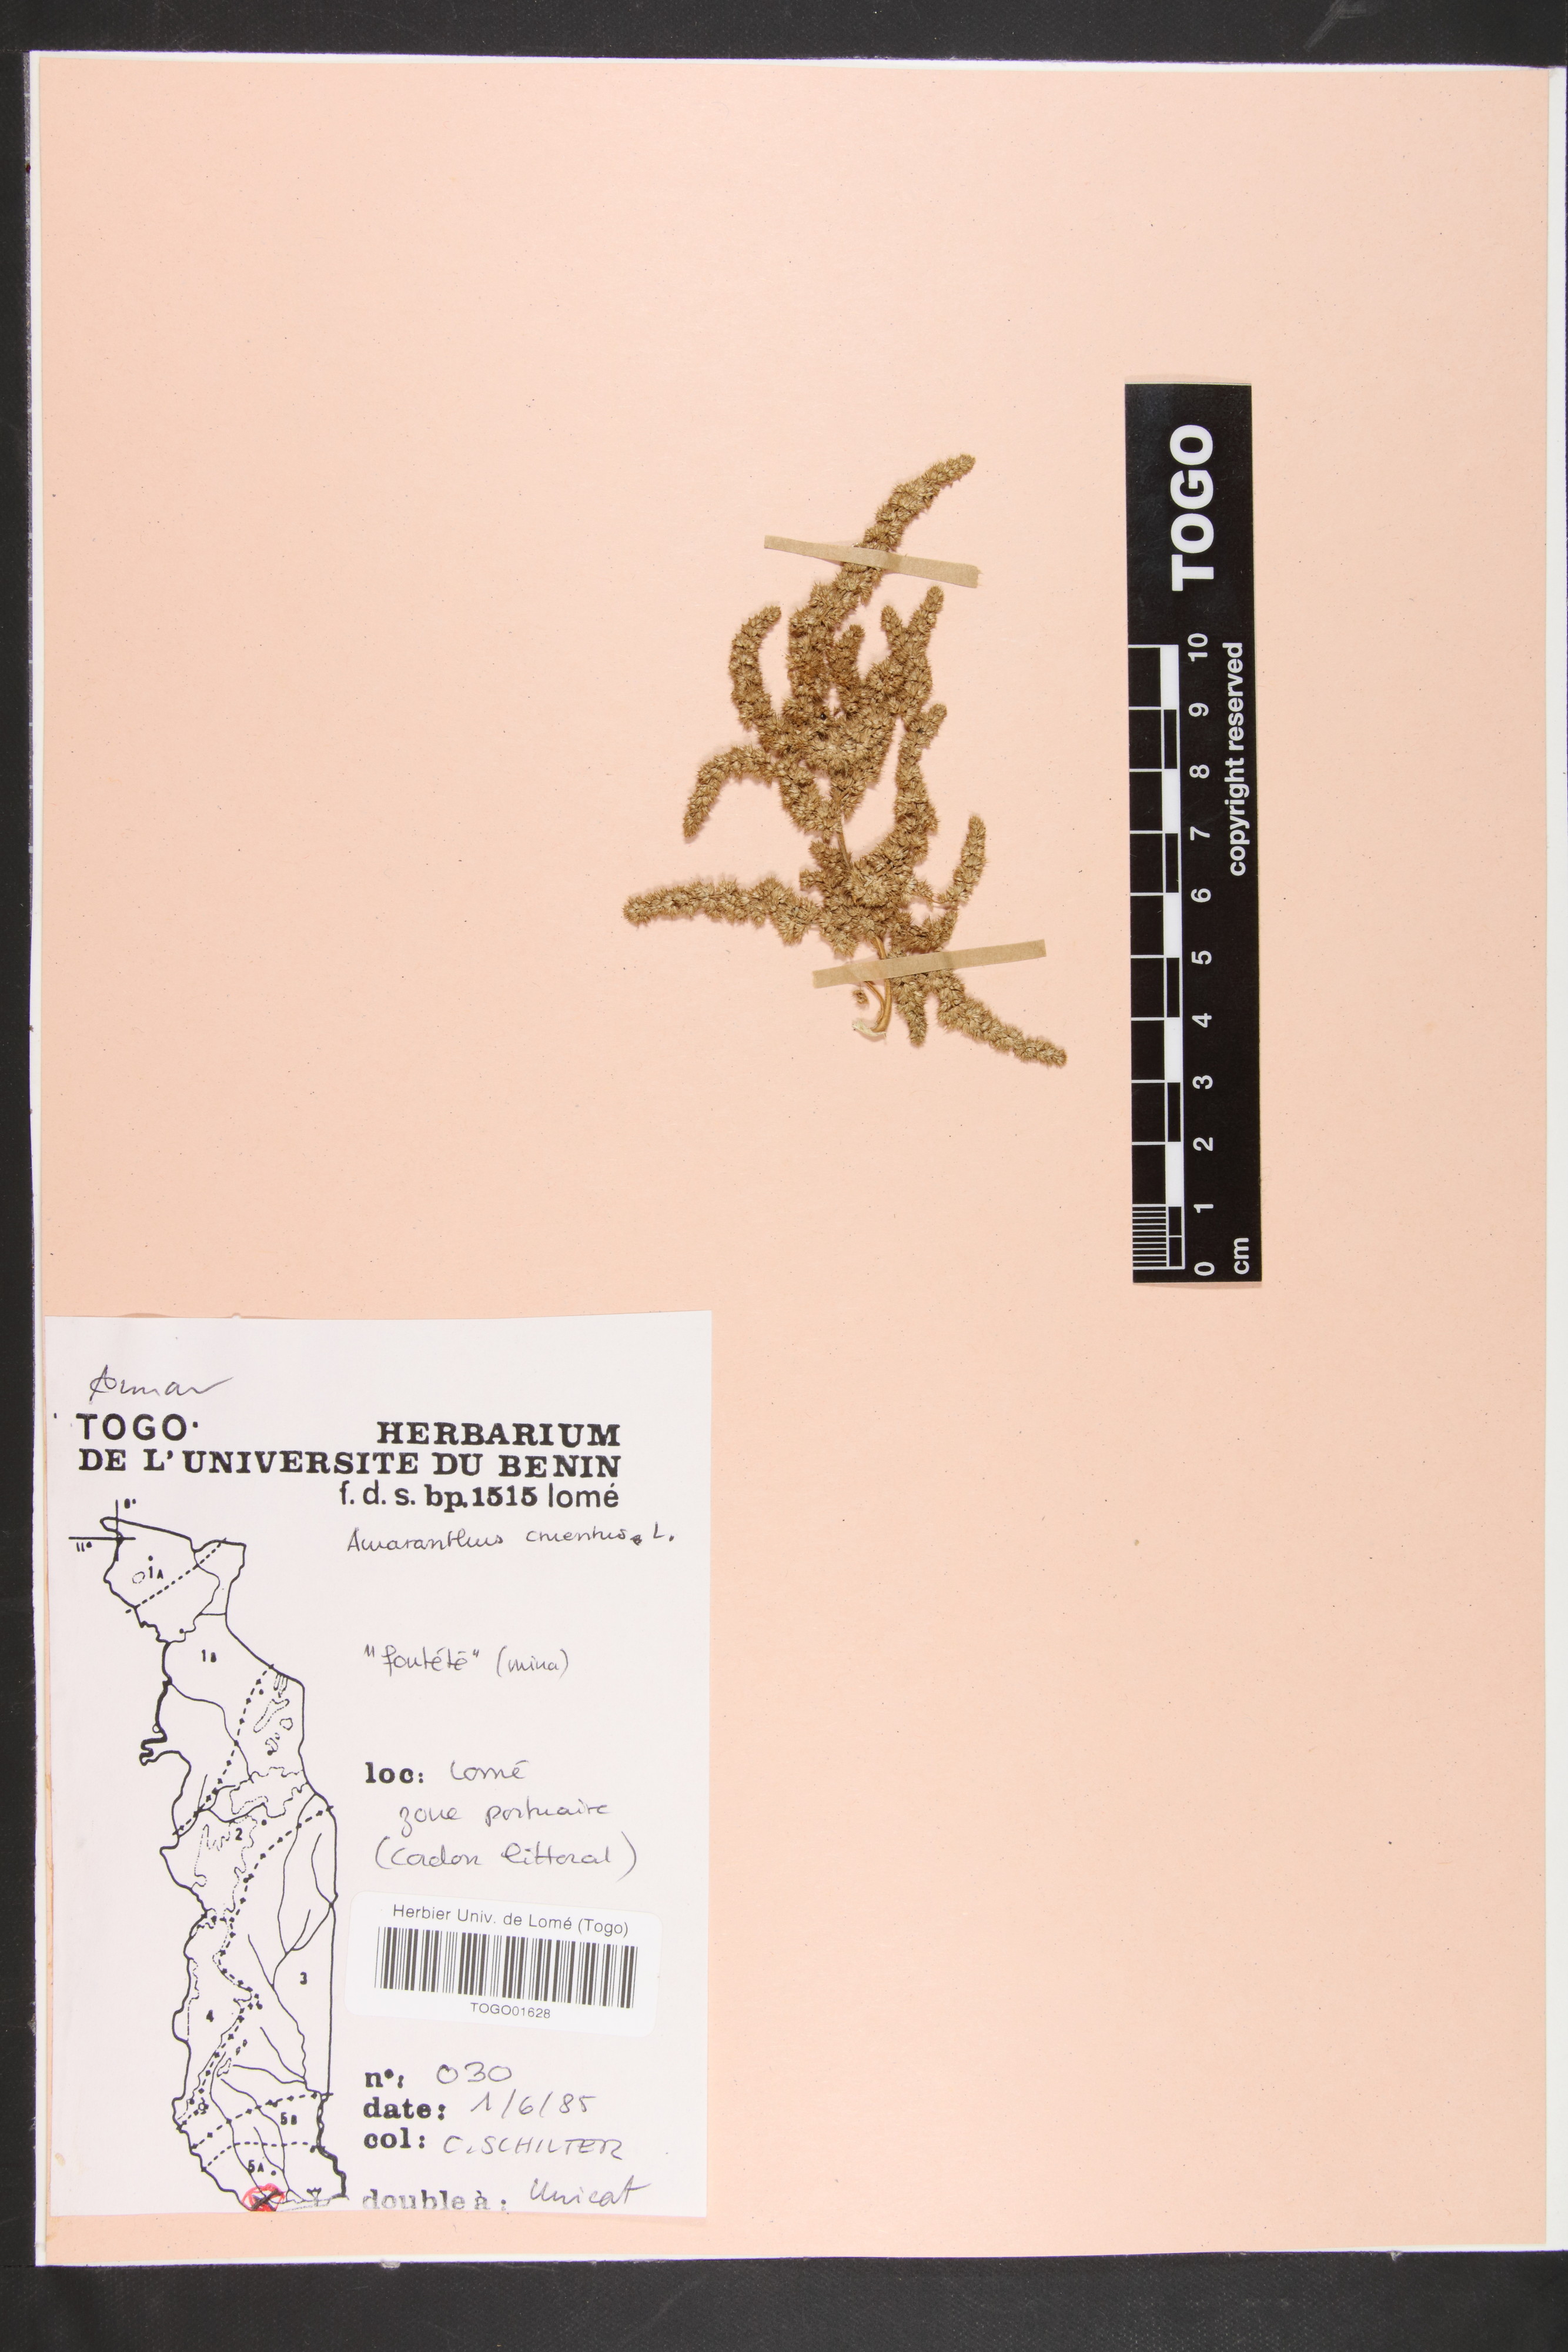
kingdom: Plantae
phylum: Tracheophyta
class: Magnoliopsida
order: Caryophyllales
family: Amaranthaceae
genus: Amaranthus
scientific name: Amaranthus cruentus
